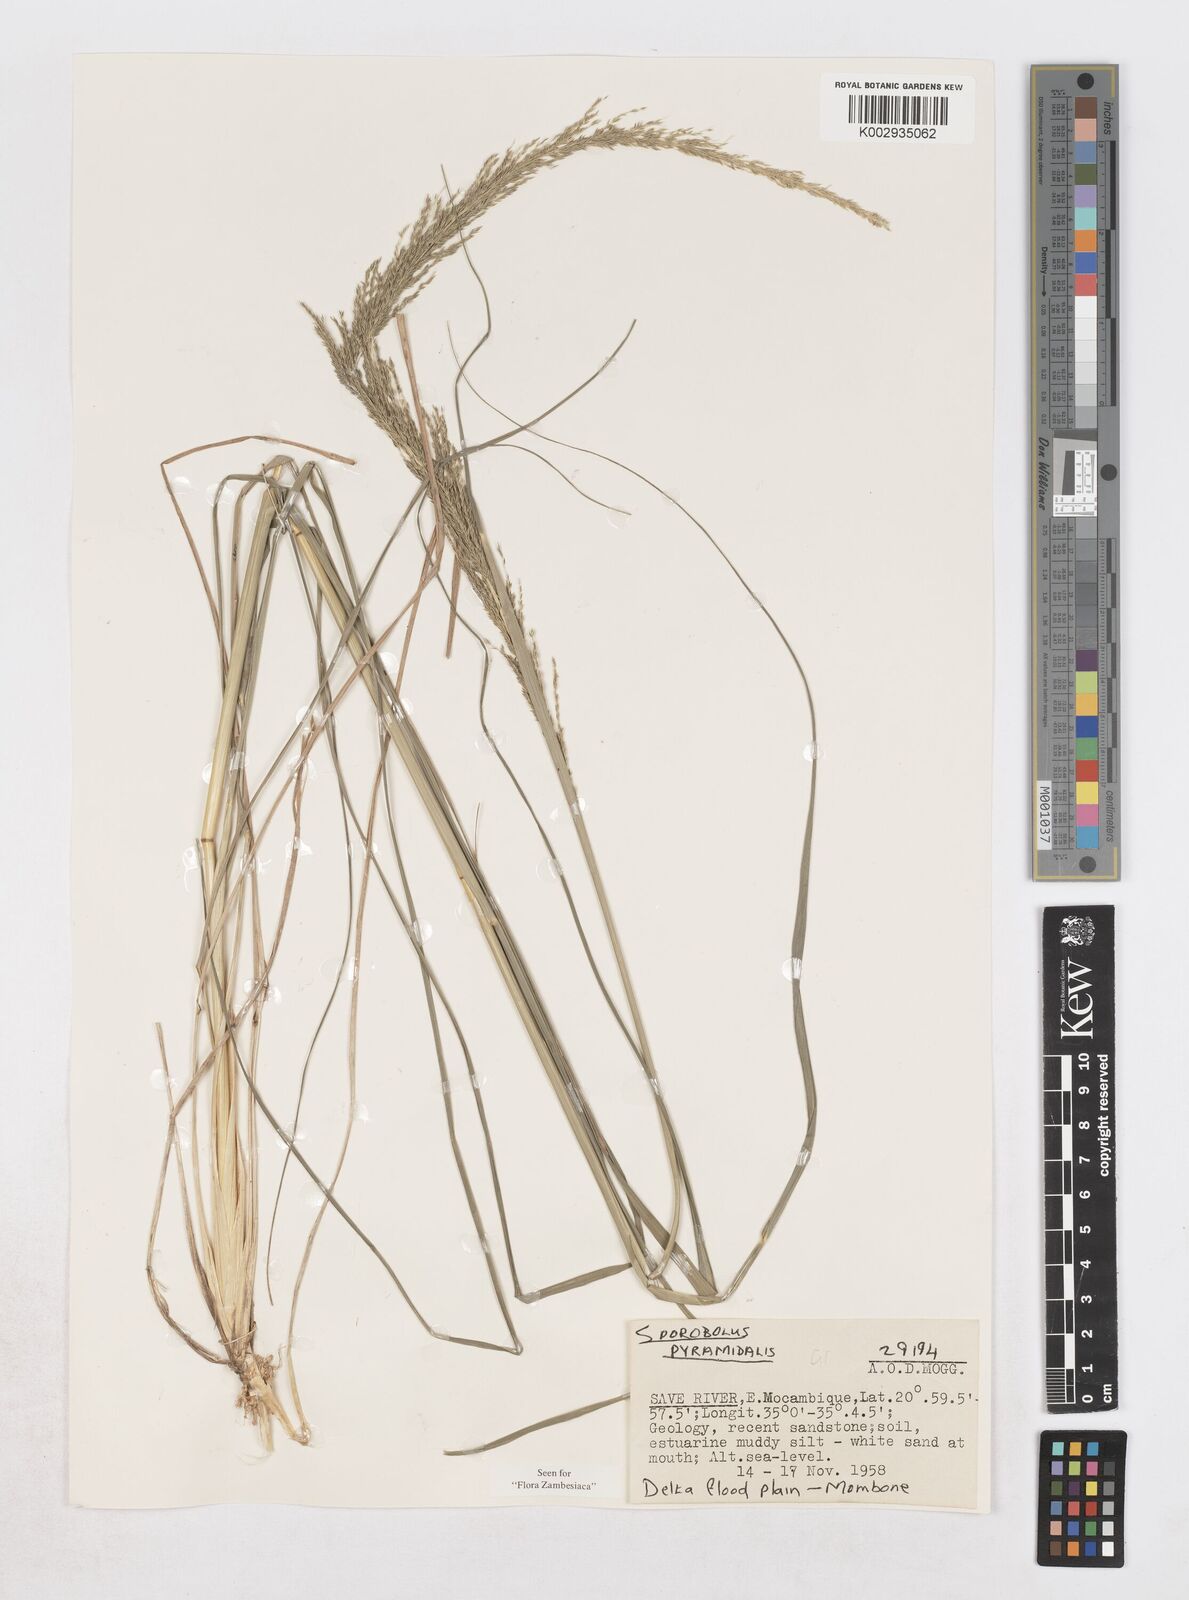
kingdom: Plantae
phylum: Tracheophyta
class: Liliopsida
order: Poales
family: Poaceae
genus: Sporobolus
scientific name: Sporobolus pyramidalis
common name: West indian dropseed
